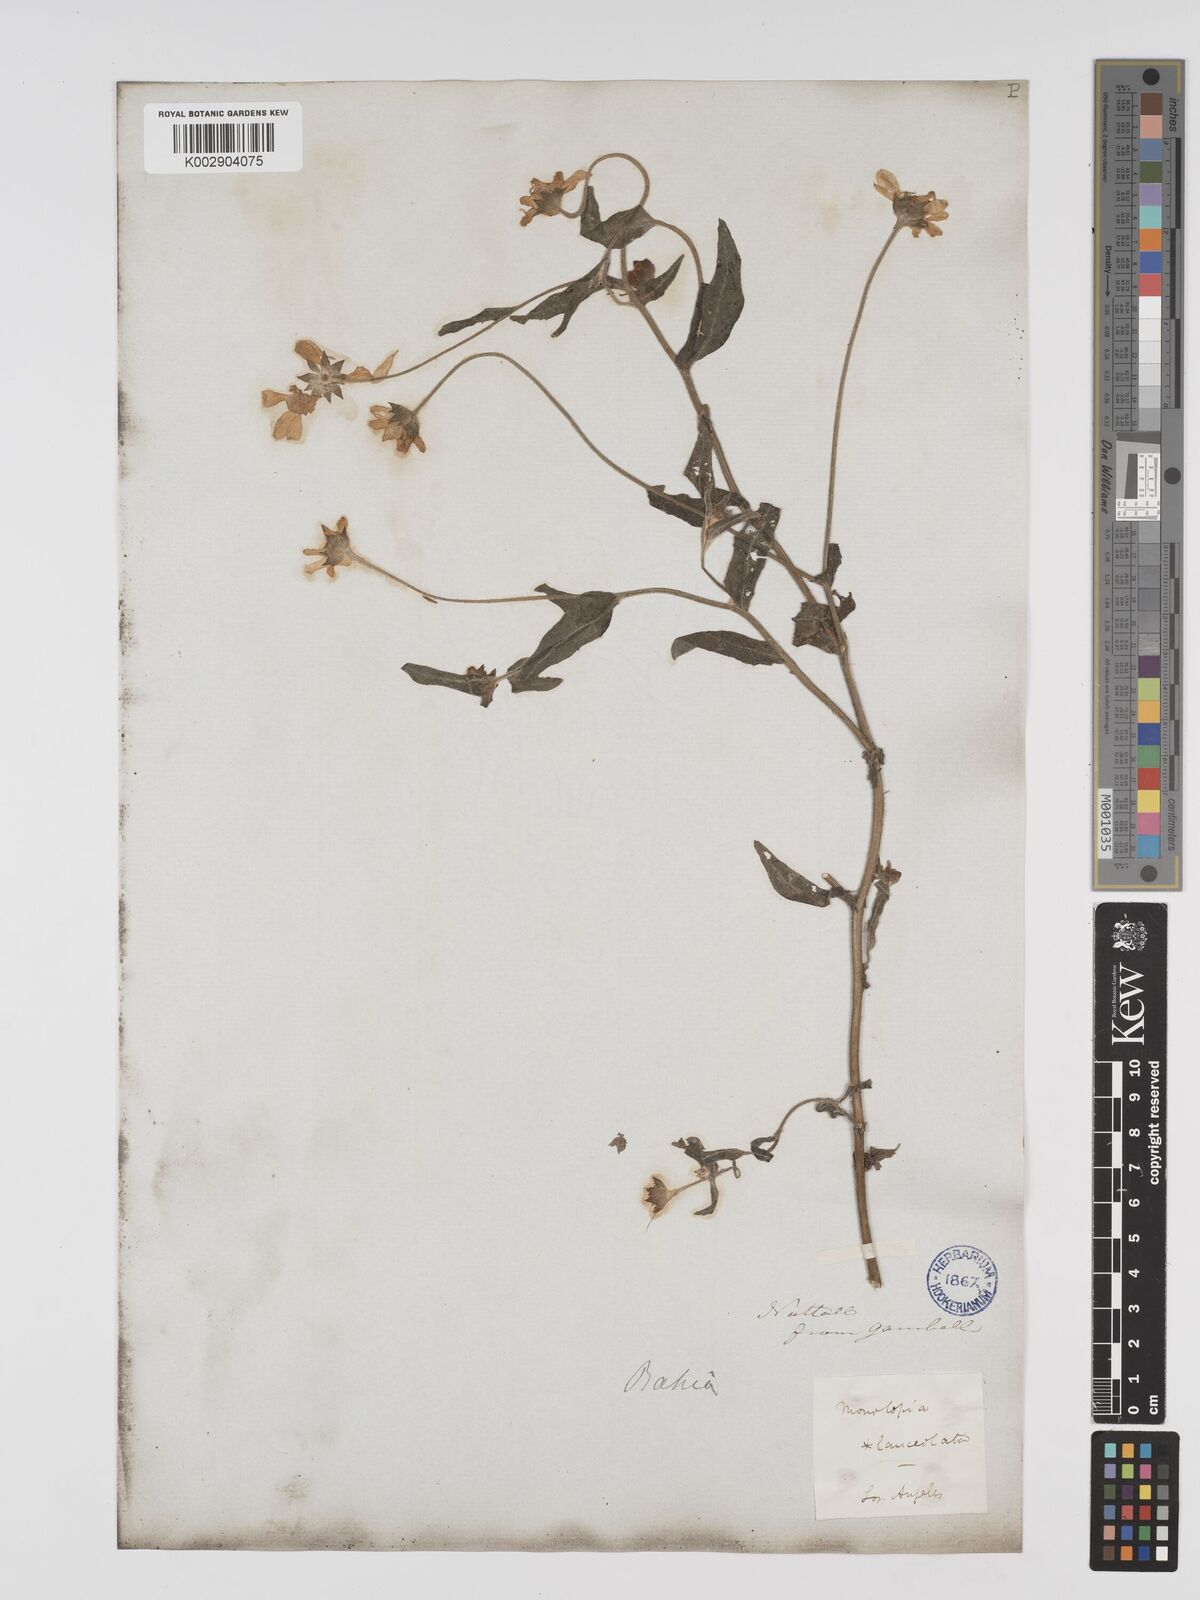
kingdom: Plantae
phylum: Tracheophyta
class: Magnoliopsida
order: Asterales
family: Asteraceae
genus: Monolopia
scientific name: Monolopia lanceolata
